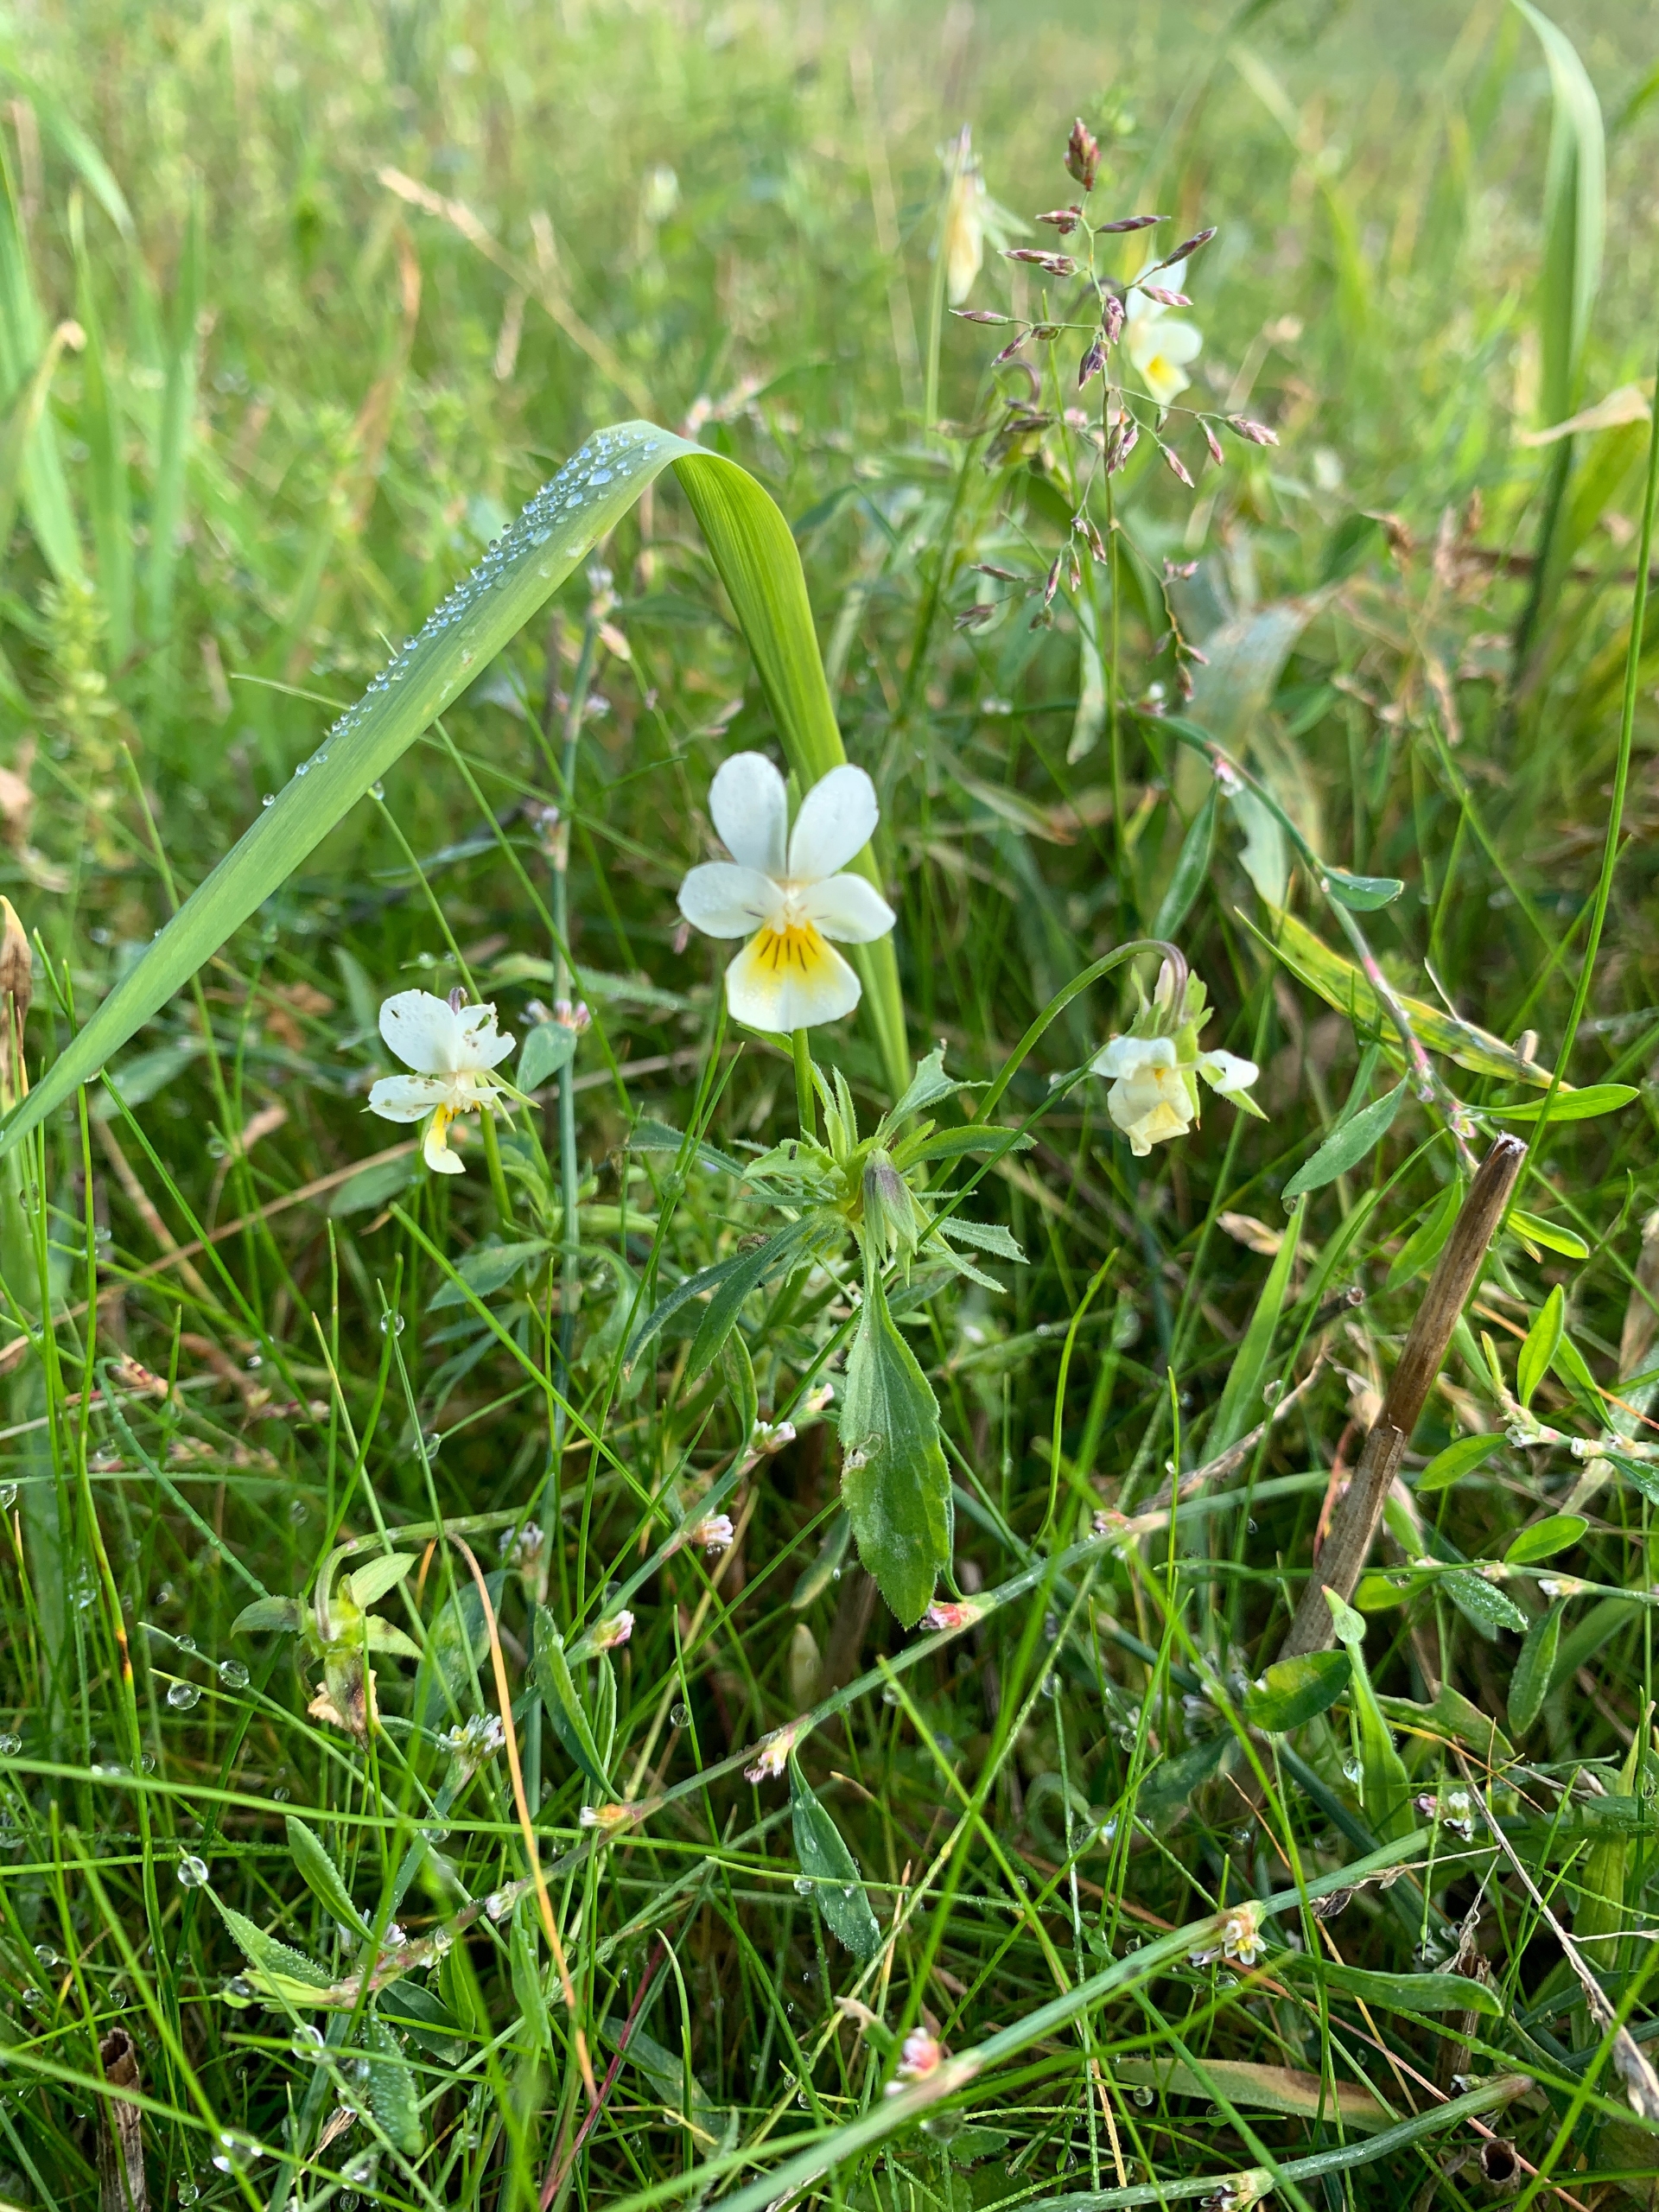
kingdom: Plantae
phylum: Tracheophyta
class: Magnoliopsida
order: Malpighiales
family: Violaceae
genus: Viola
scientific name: Viola arvensis
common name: Ager-stedmoderblomst
